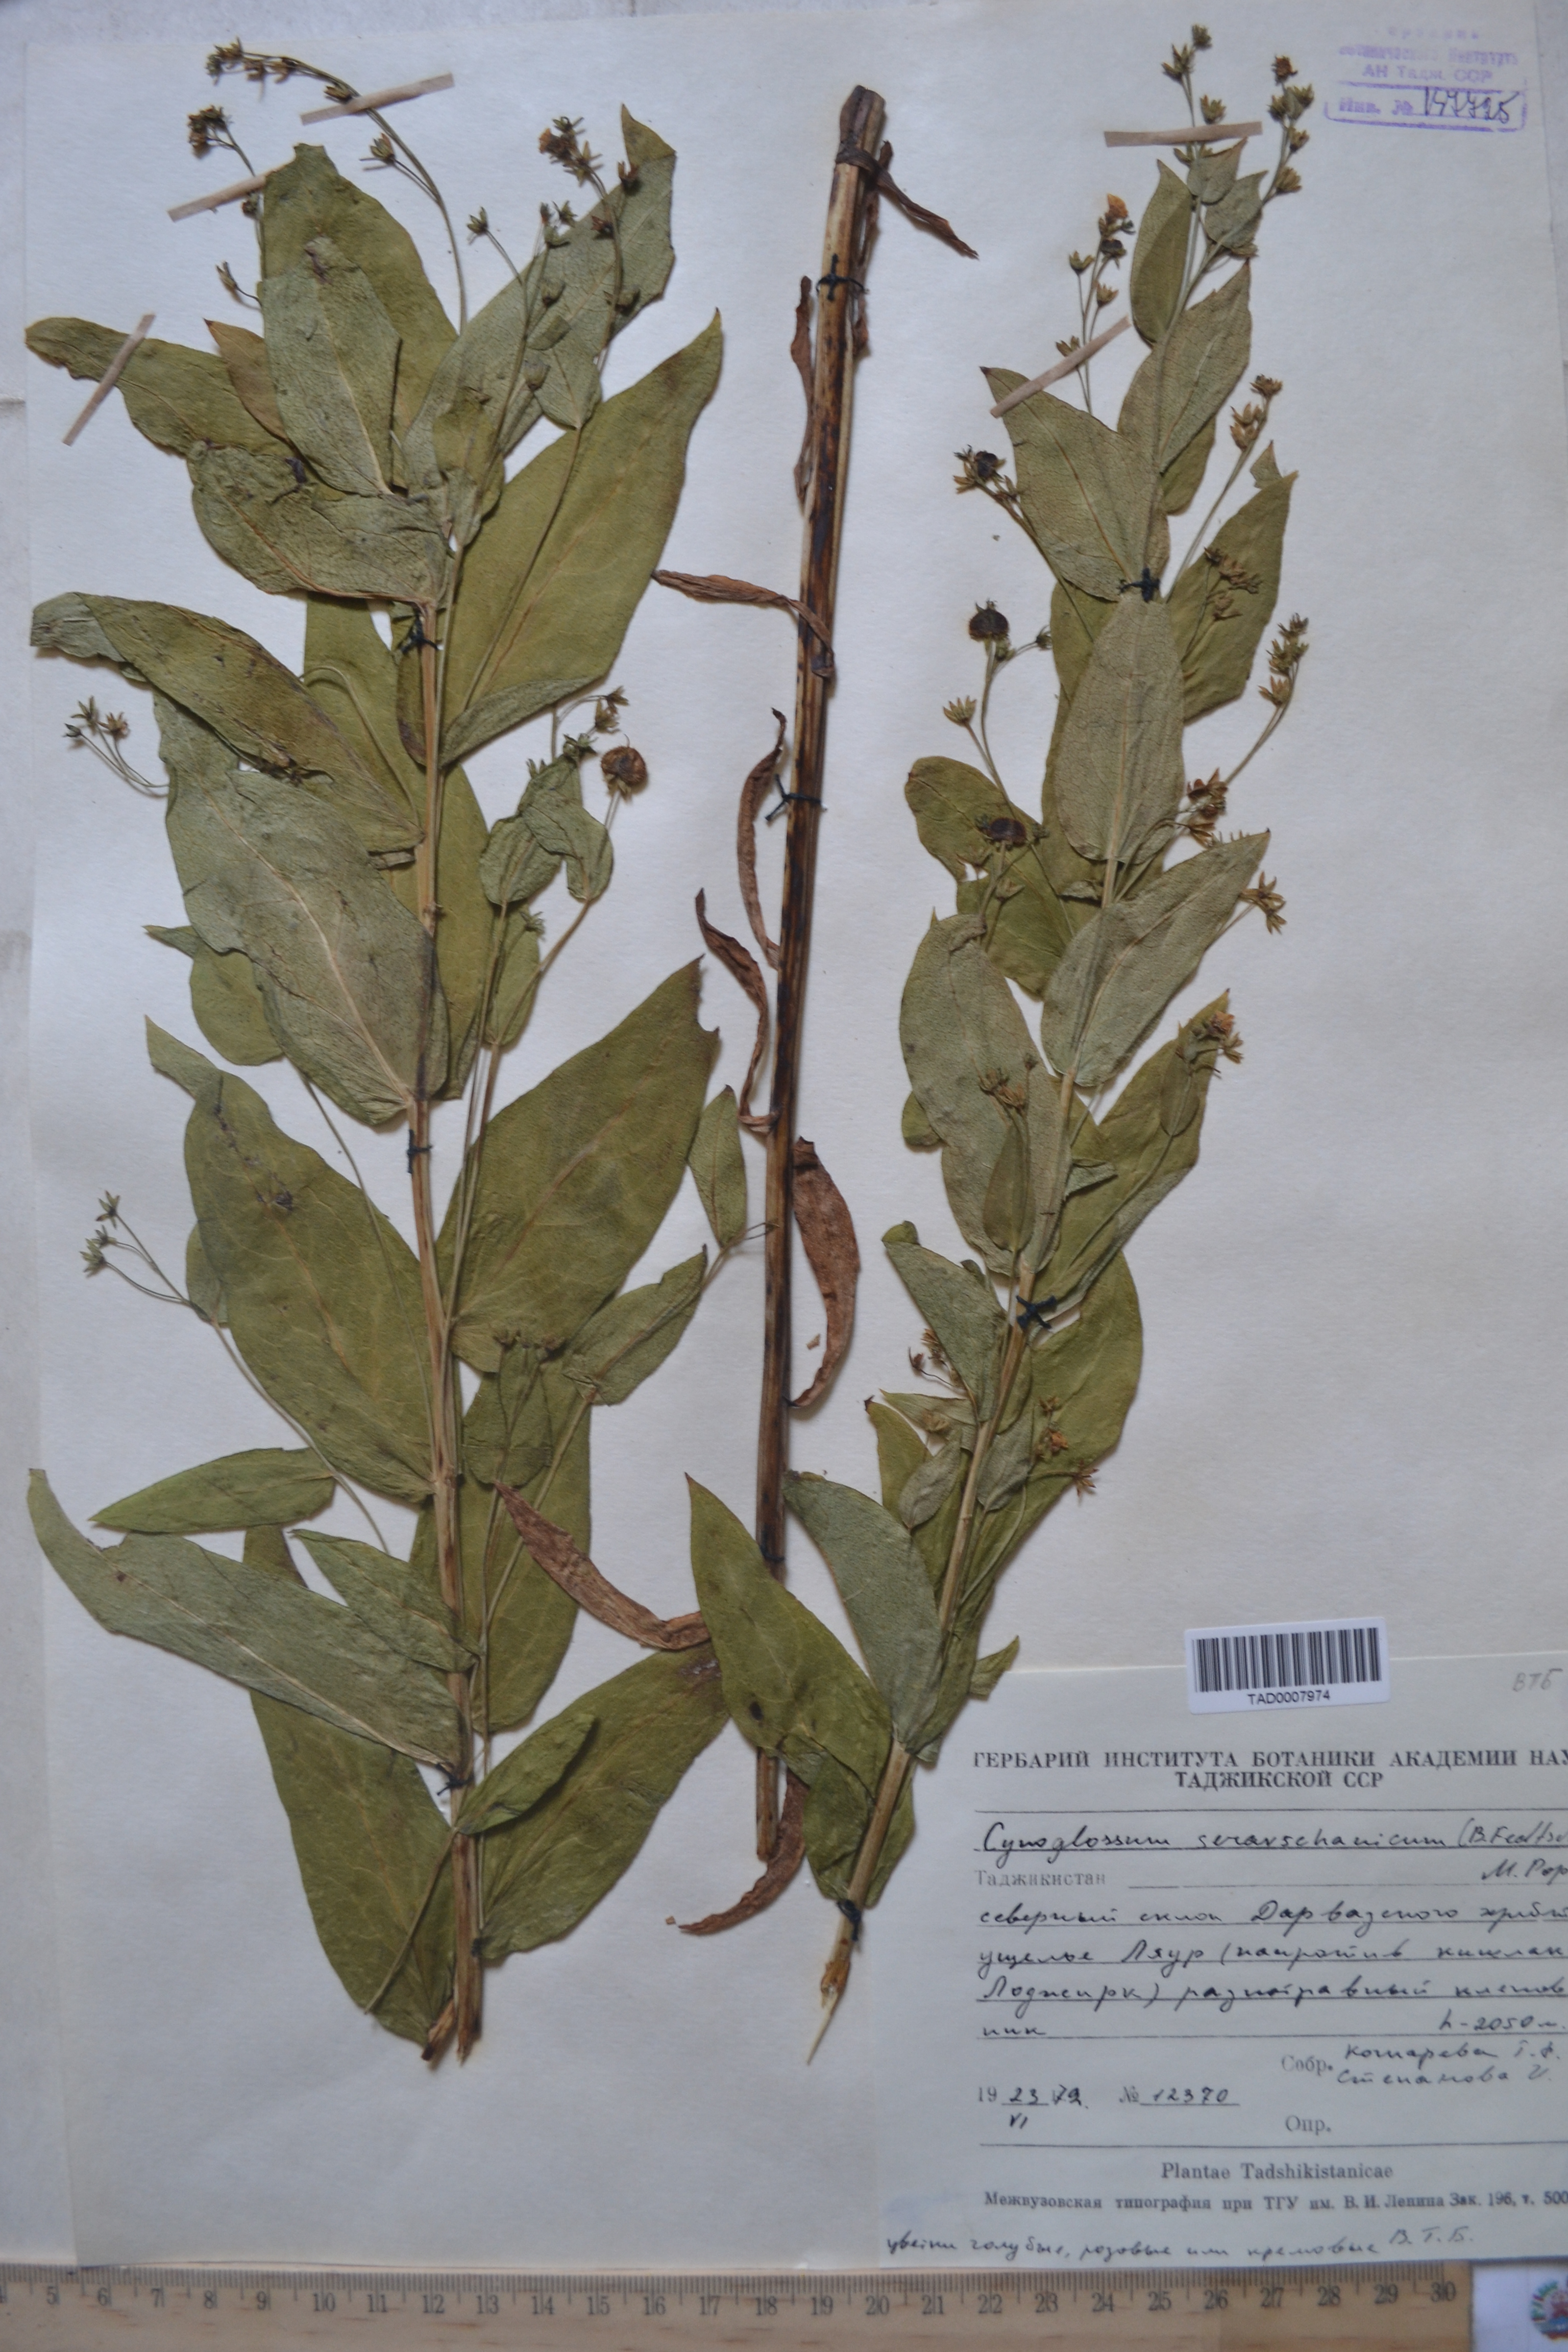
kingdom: Plantae
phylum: Tracheophyta
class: Magnoliopsida
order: Boraginales
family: Boraginaceae
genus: Cynoglossum
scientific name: Cynoglossum
